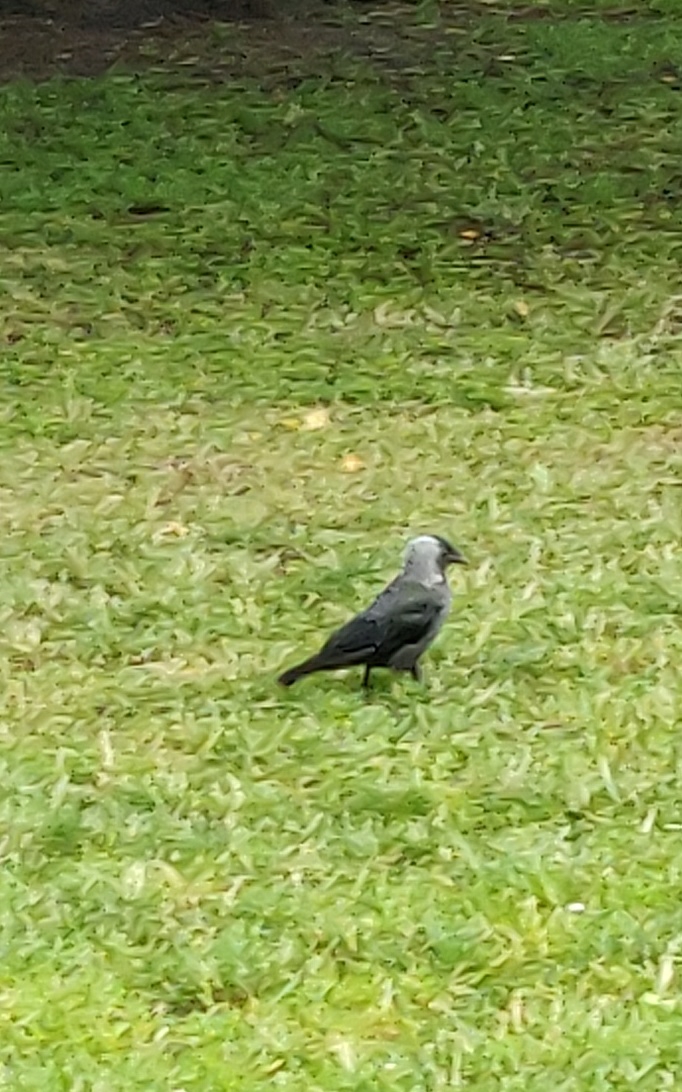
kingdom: Animalia
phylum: Chordata
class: Aves
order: Passeriformes
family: Corvidae
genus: Coloeus
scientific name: Coloeus monedula
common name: Allike
